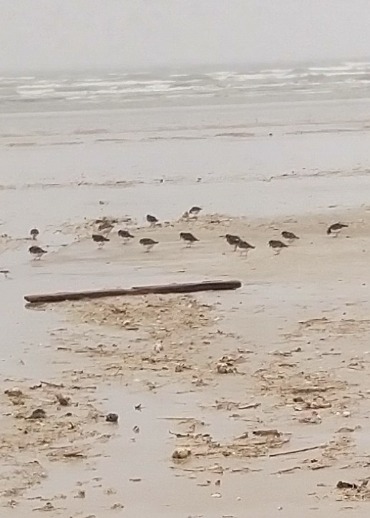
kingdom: Animalia
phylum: Chordata
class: Aves
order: Charadriiformes
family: Scolopacidae
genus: Arenaria
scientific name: Arenaria interpres
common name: Stenvender
